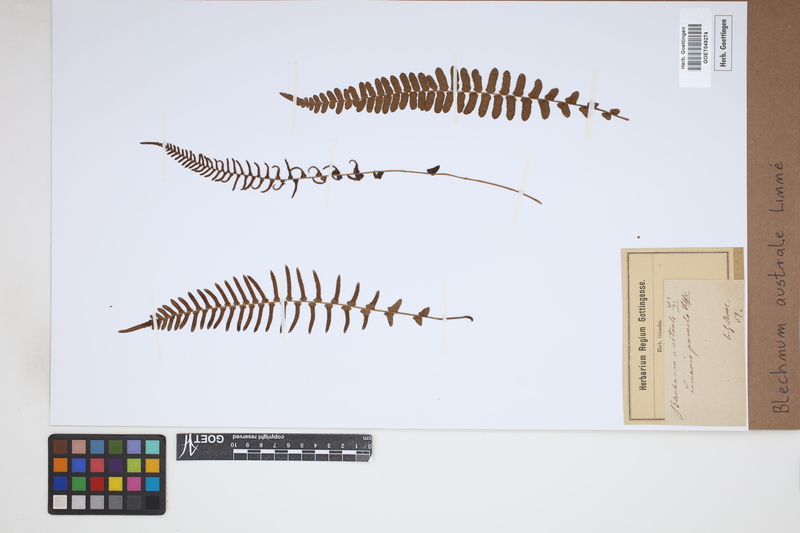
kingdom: Plantae
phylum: Tracheophyta
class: Polypodiopsida
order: Polypodiales
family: Blechnaceae
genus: Blechnum
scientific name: Blechnum australe
